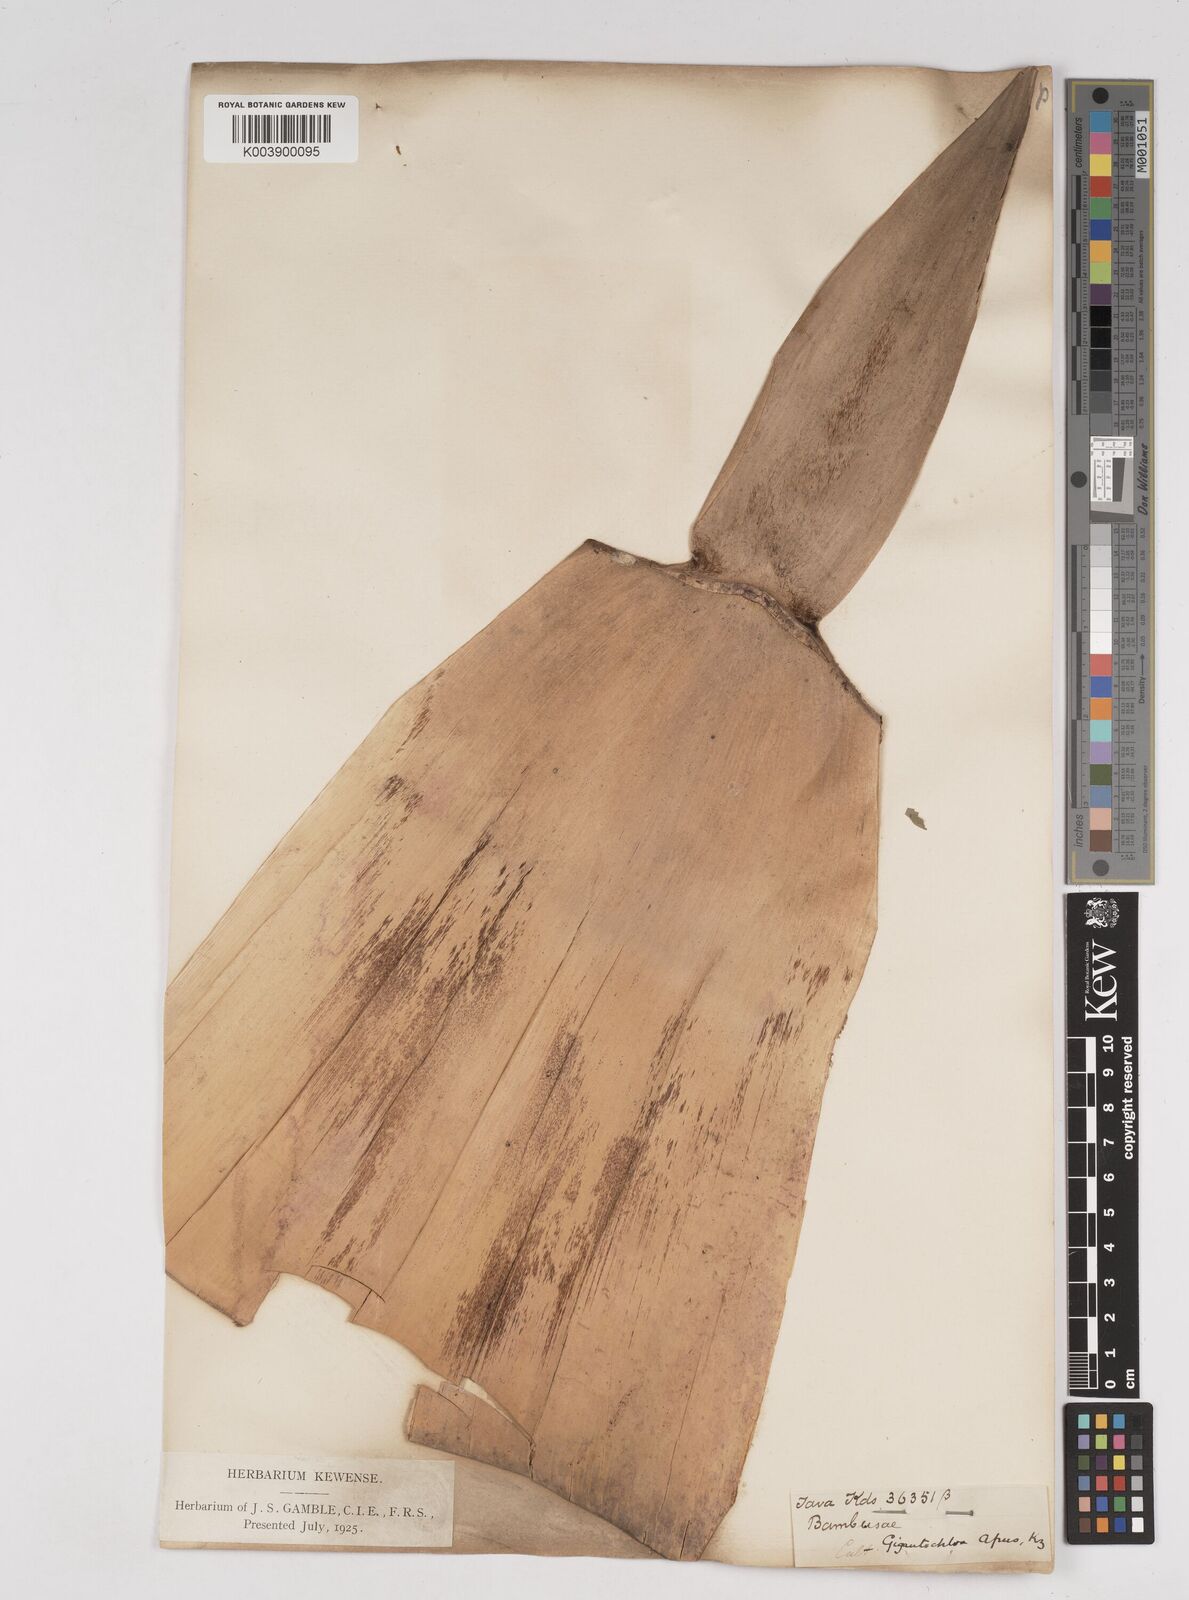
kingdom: Plantae
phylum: Tracheophyta
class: Liliopsida
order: Poales
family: Poaceae
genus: Gigantochloa
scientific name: Gigantochloa apus
